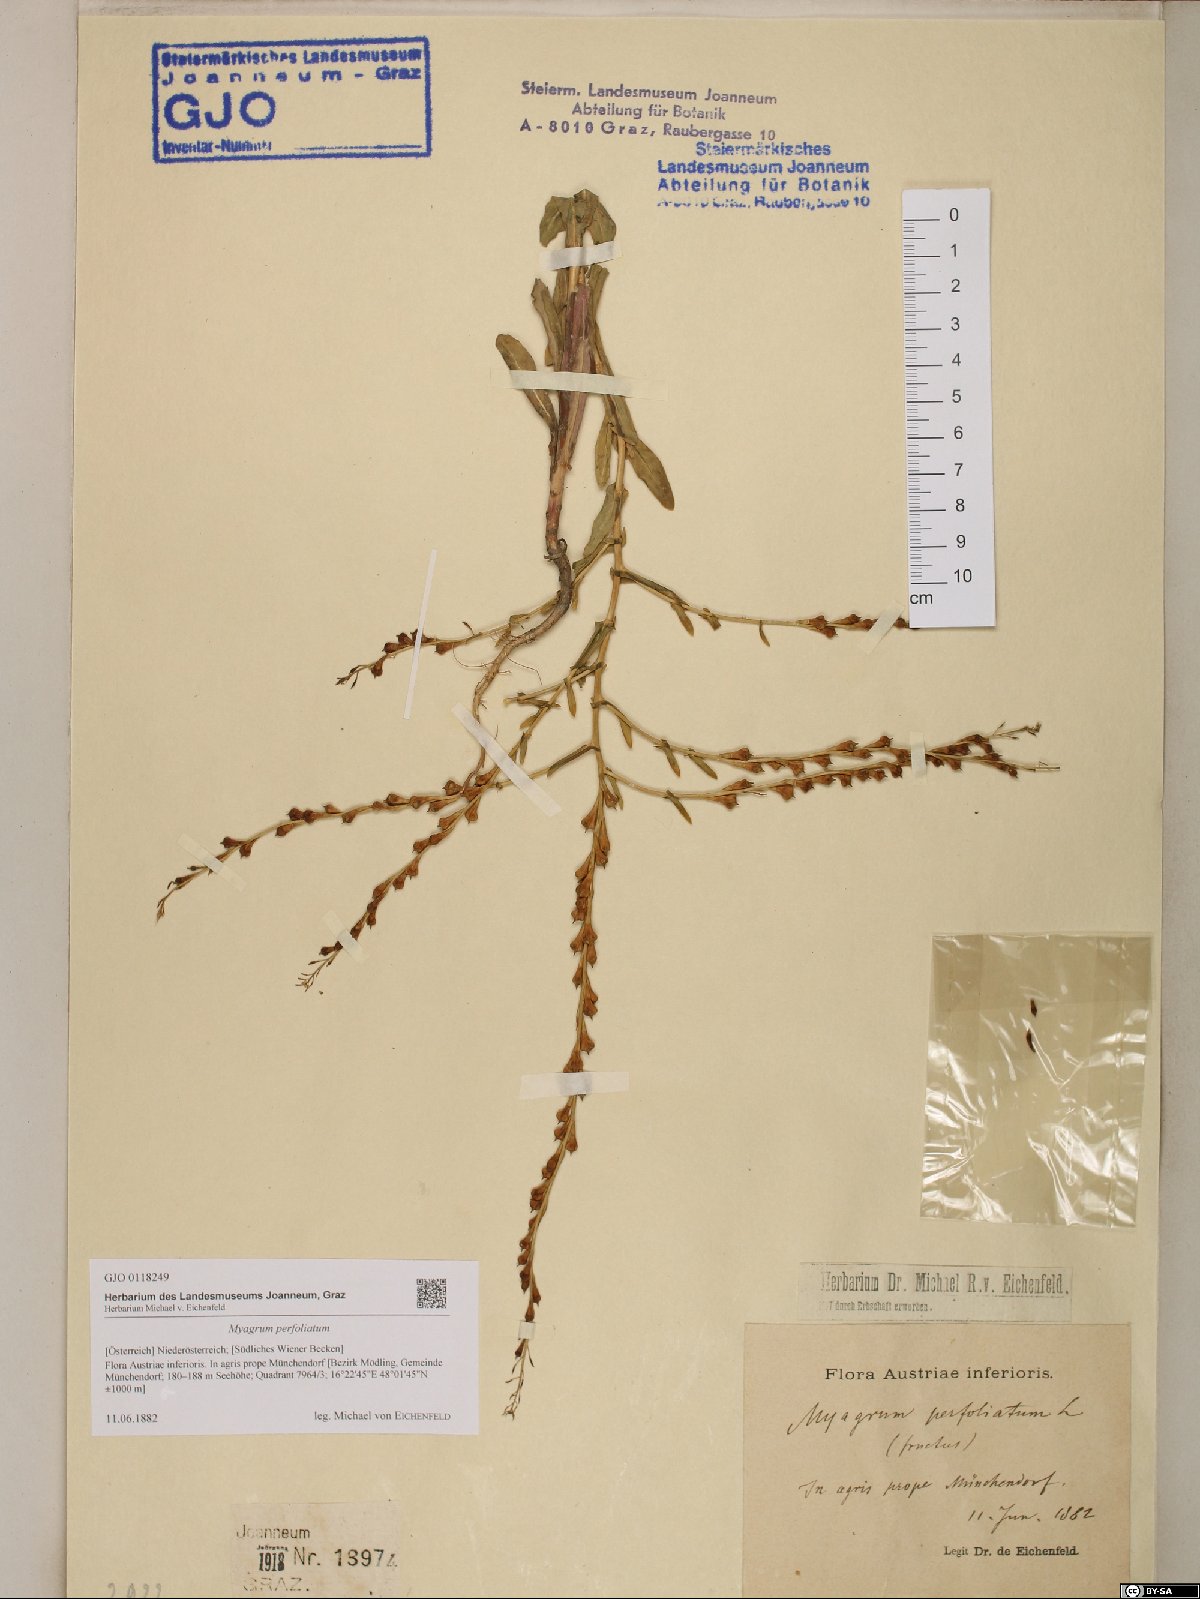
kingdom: Plantae
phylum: Tracheophyta
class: Magnoliopsida
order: Brassicales
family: Brassicaceae
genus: Myagrum
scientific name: Myagrum perfoliatum
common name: Mitre cress
